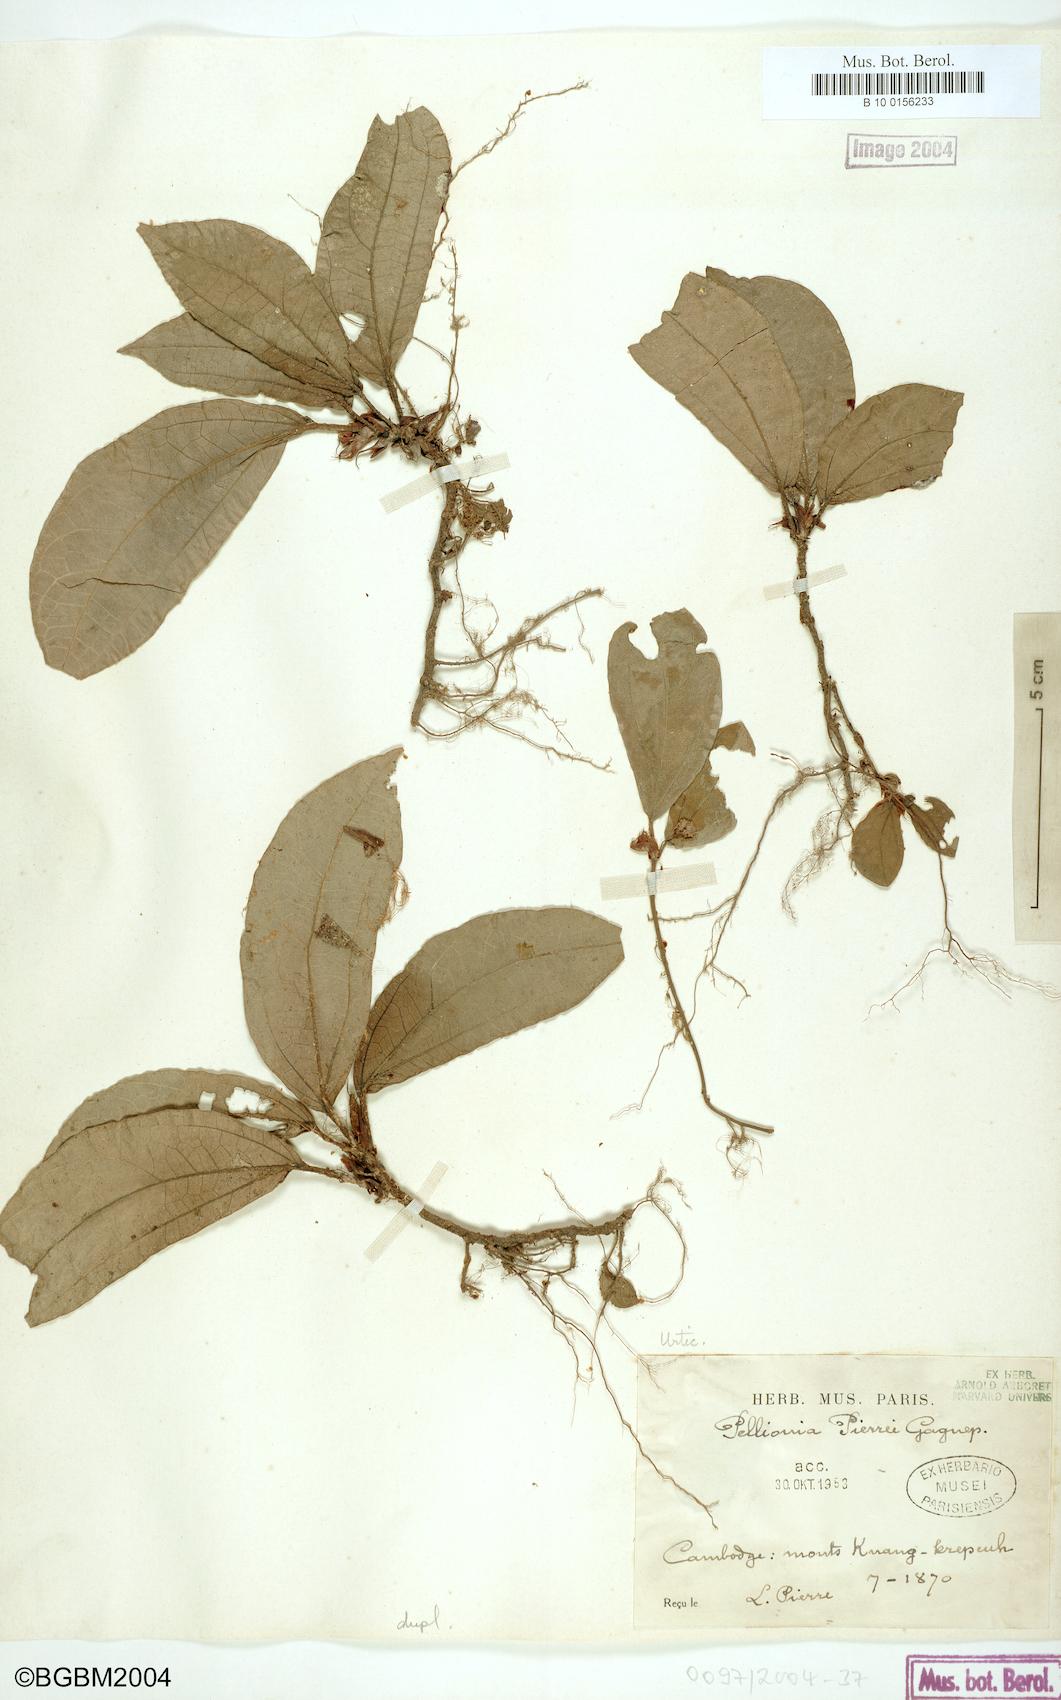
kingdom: Plantae
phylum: Tracheophyta
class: Magnoliopsida
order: Rosales
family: Urticaceae
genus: Elatostema
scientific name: Elatostema latifolium
